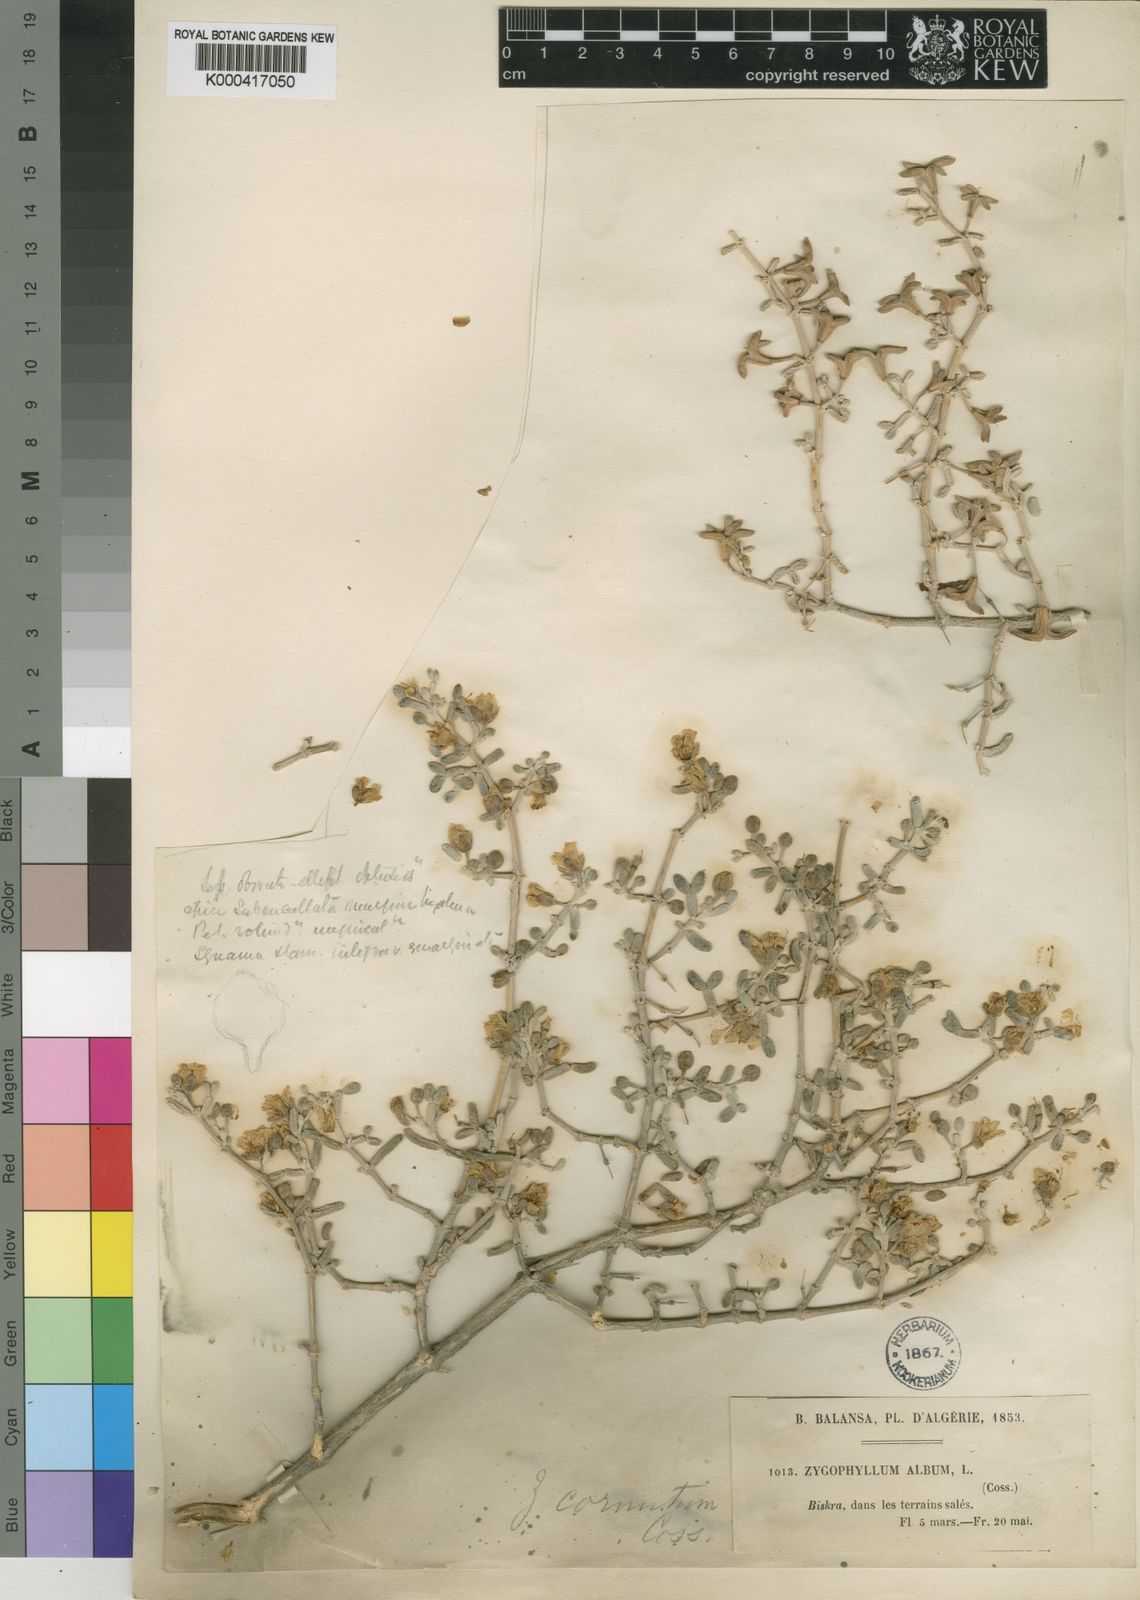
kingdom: Plantae
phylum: Tracheophyta
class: Magnoliopsida
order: Zygophyllales
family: Zygophyllaceae
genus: Tetraena
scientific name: Tetraena cornuta
